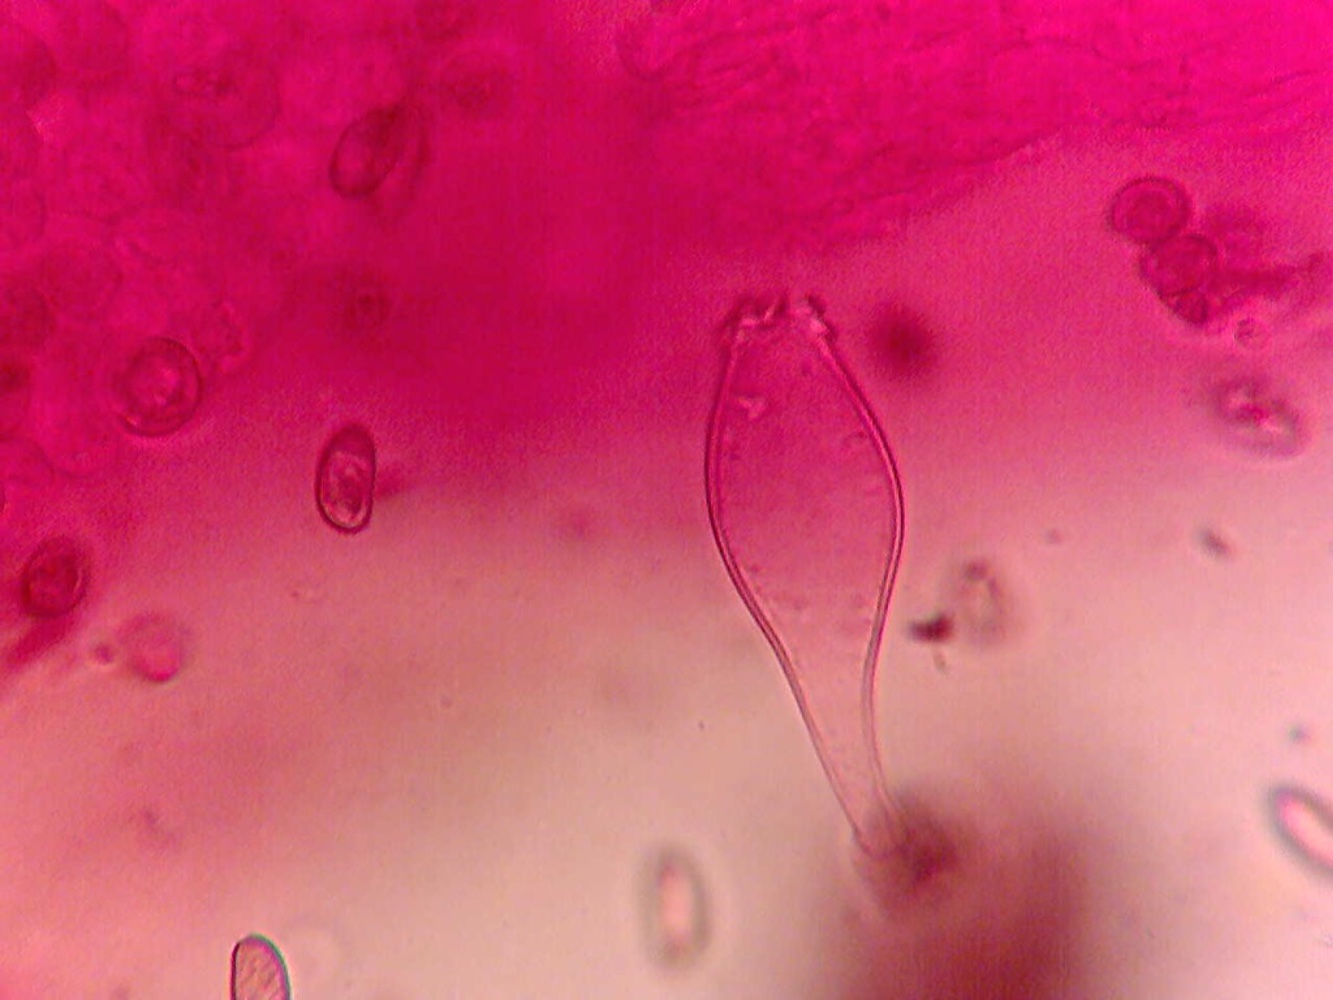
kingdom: Fungi
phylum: Basidiomycota
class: Agaricomycetes
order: Agaricales
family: Inocybaceae
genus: Inocybe
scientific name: Inocybe appendiculata
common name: tandet trævlhat
